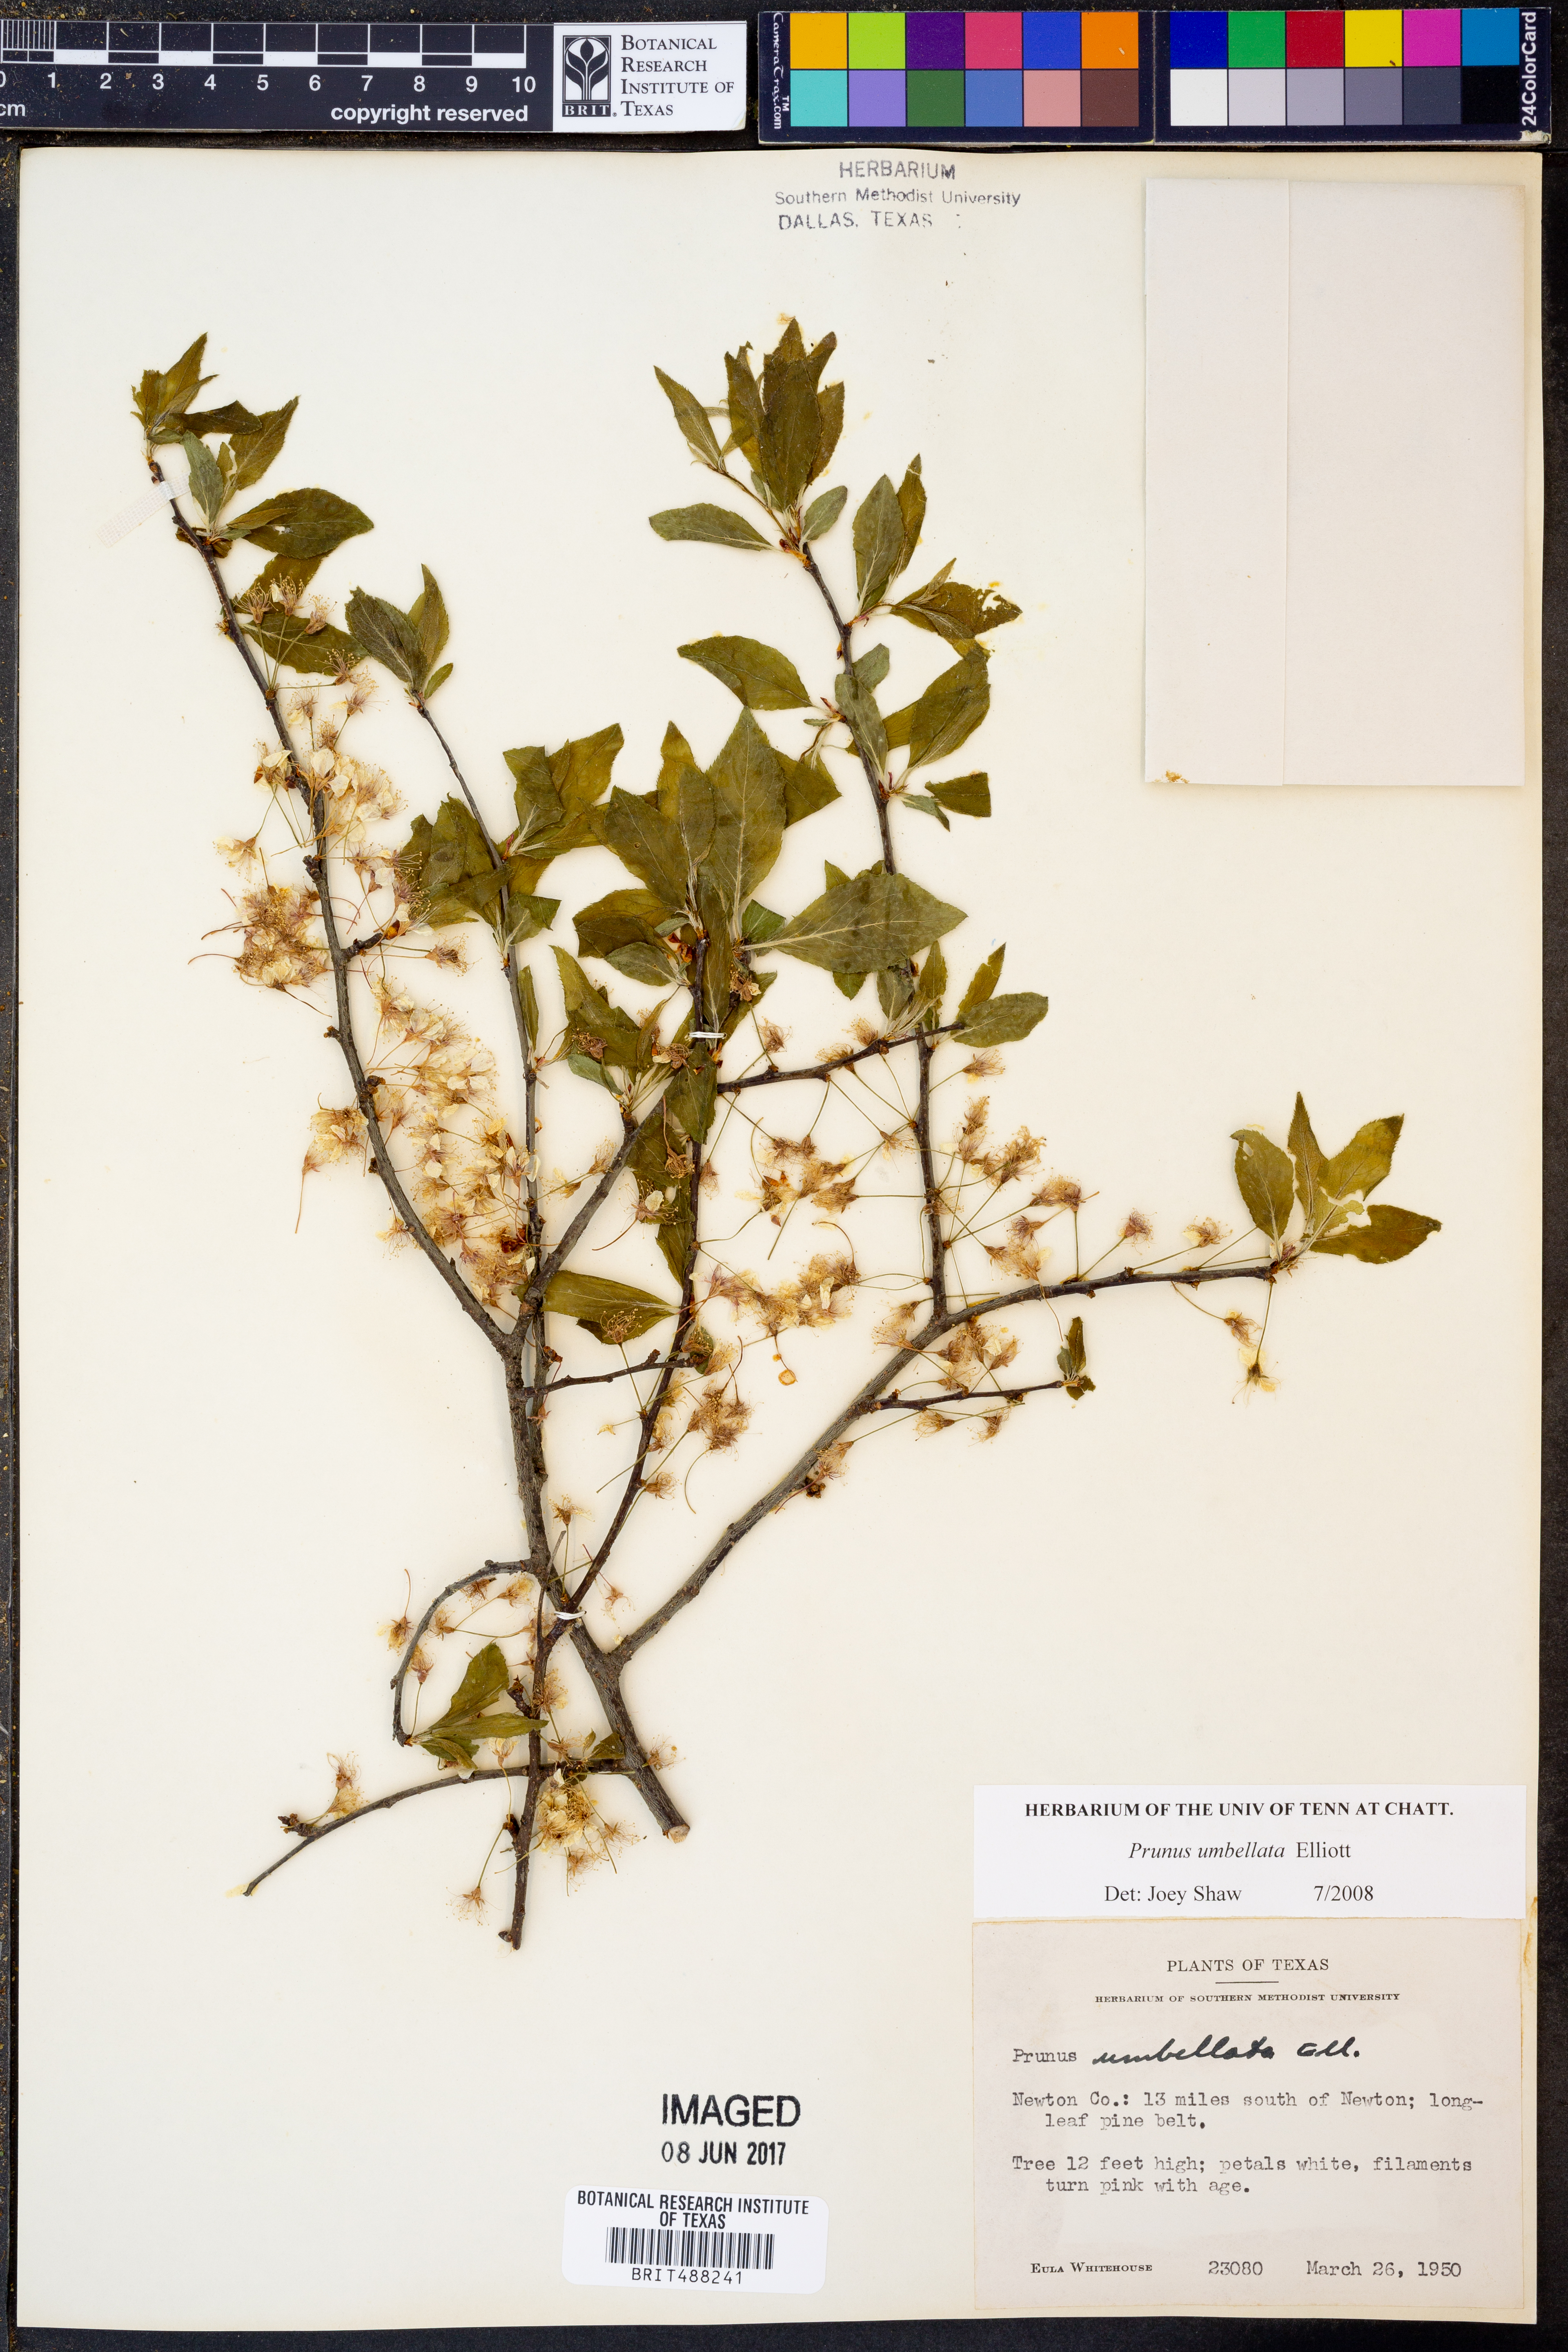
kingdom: Plantae
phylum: Tracheophyta
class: Magnoliopsida
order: Rosales
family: Rosaceae
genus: Prunus
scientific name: Prunus umbellata
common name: Allegheny plum
